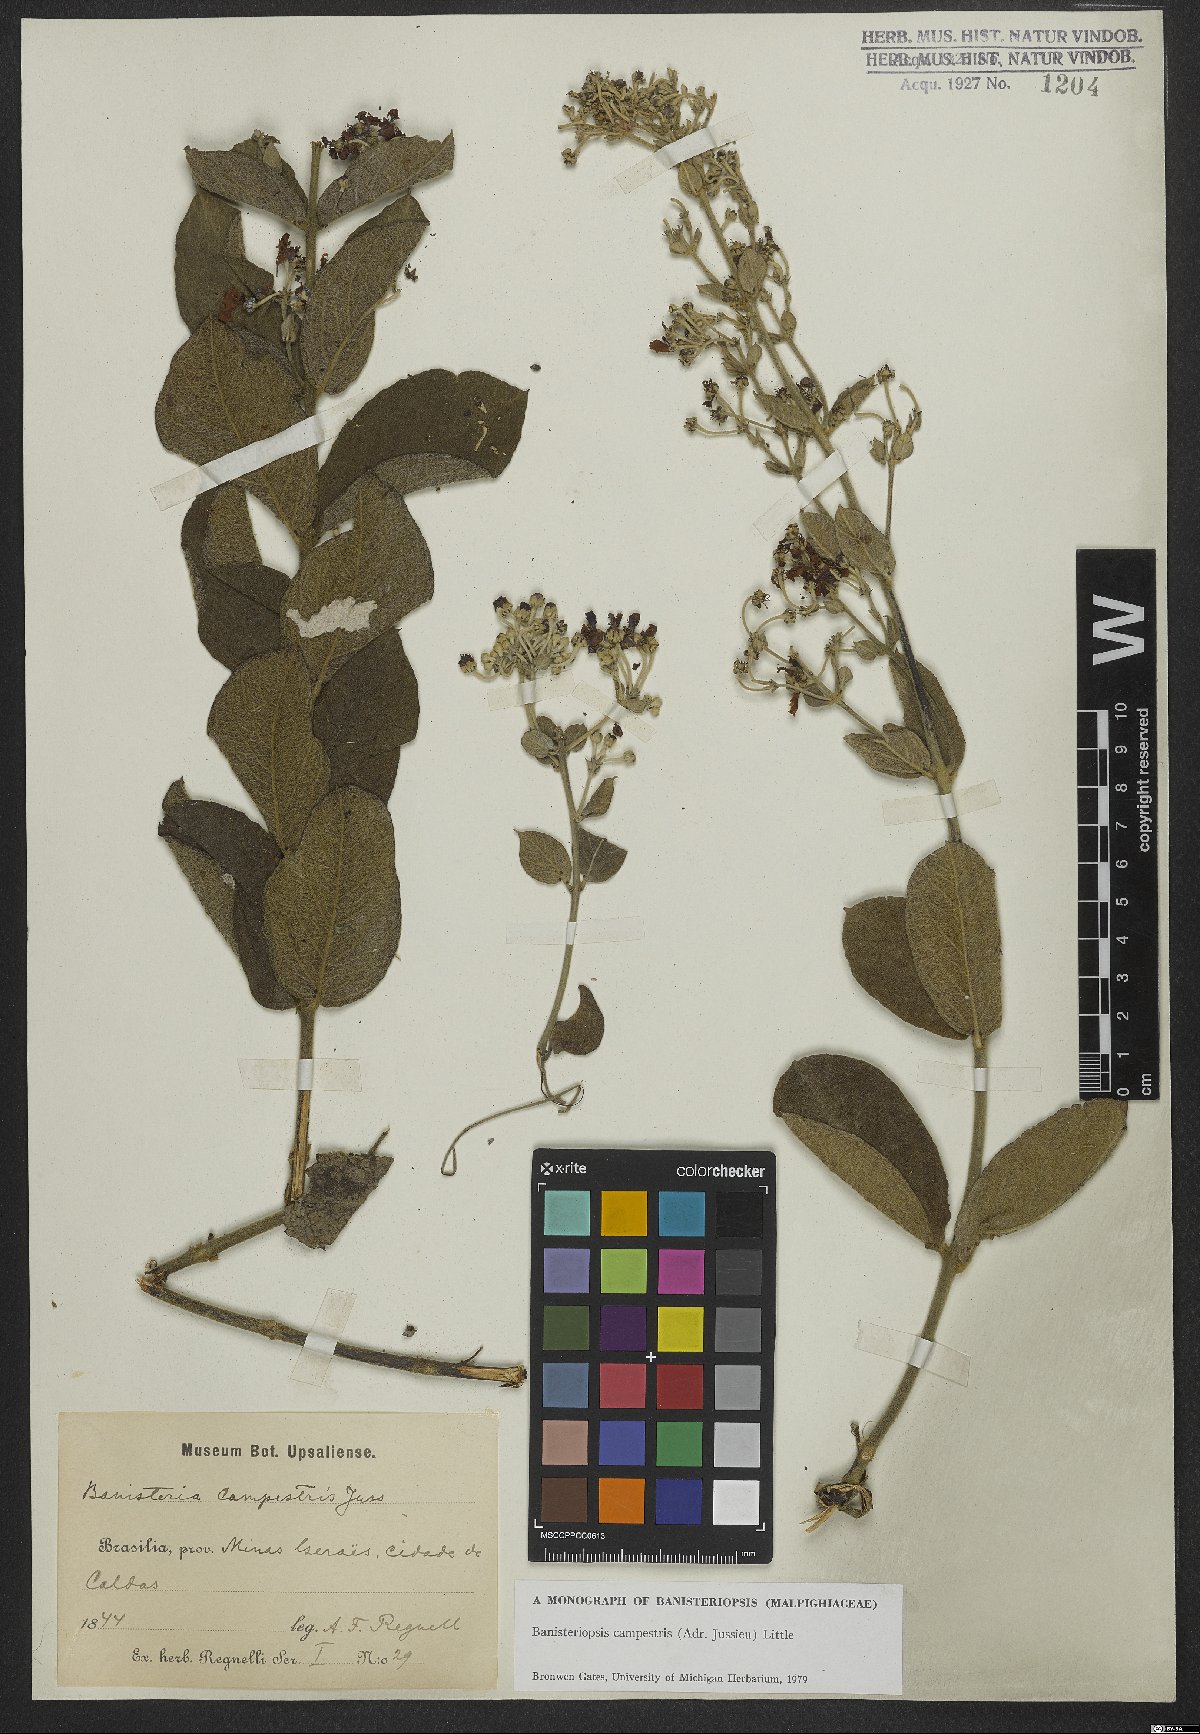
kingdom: Plantae
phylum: Tracheophyta
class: Magnoliopsida
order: Malpighiales
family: Malpighiaceae
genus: Banisteriopsis
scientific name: Banisteriopsis campestris
